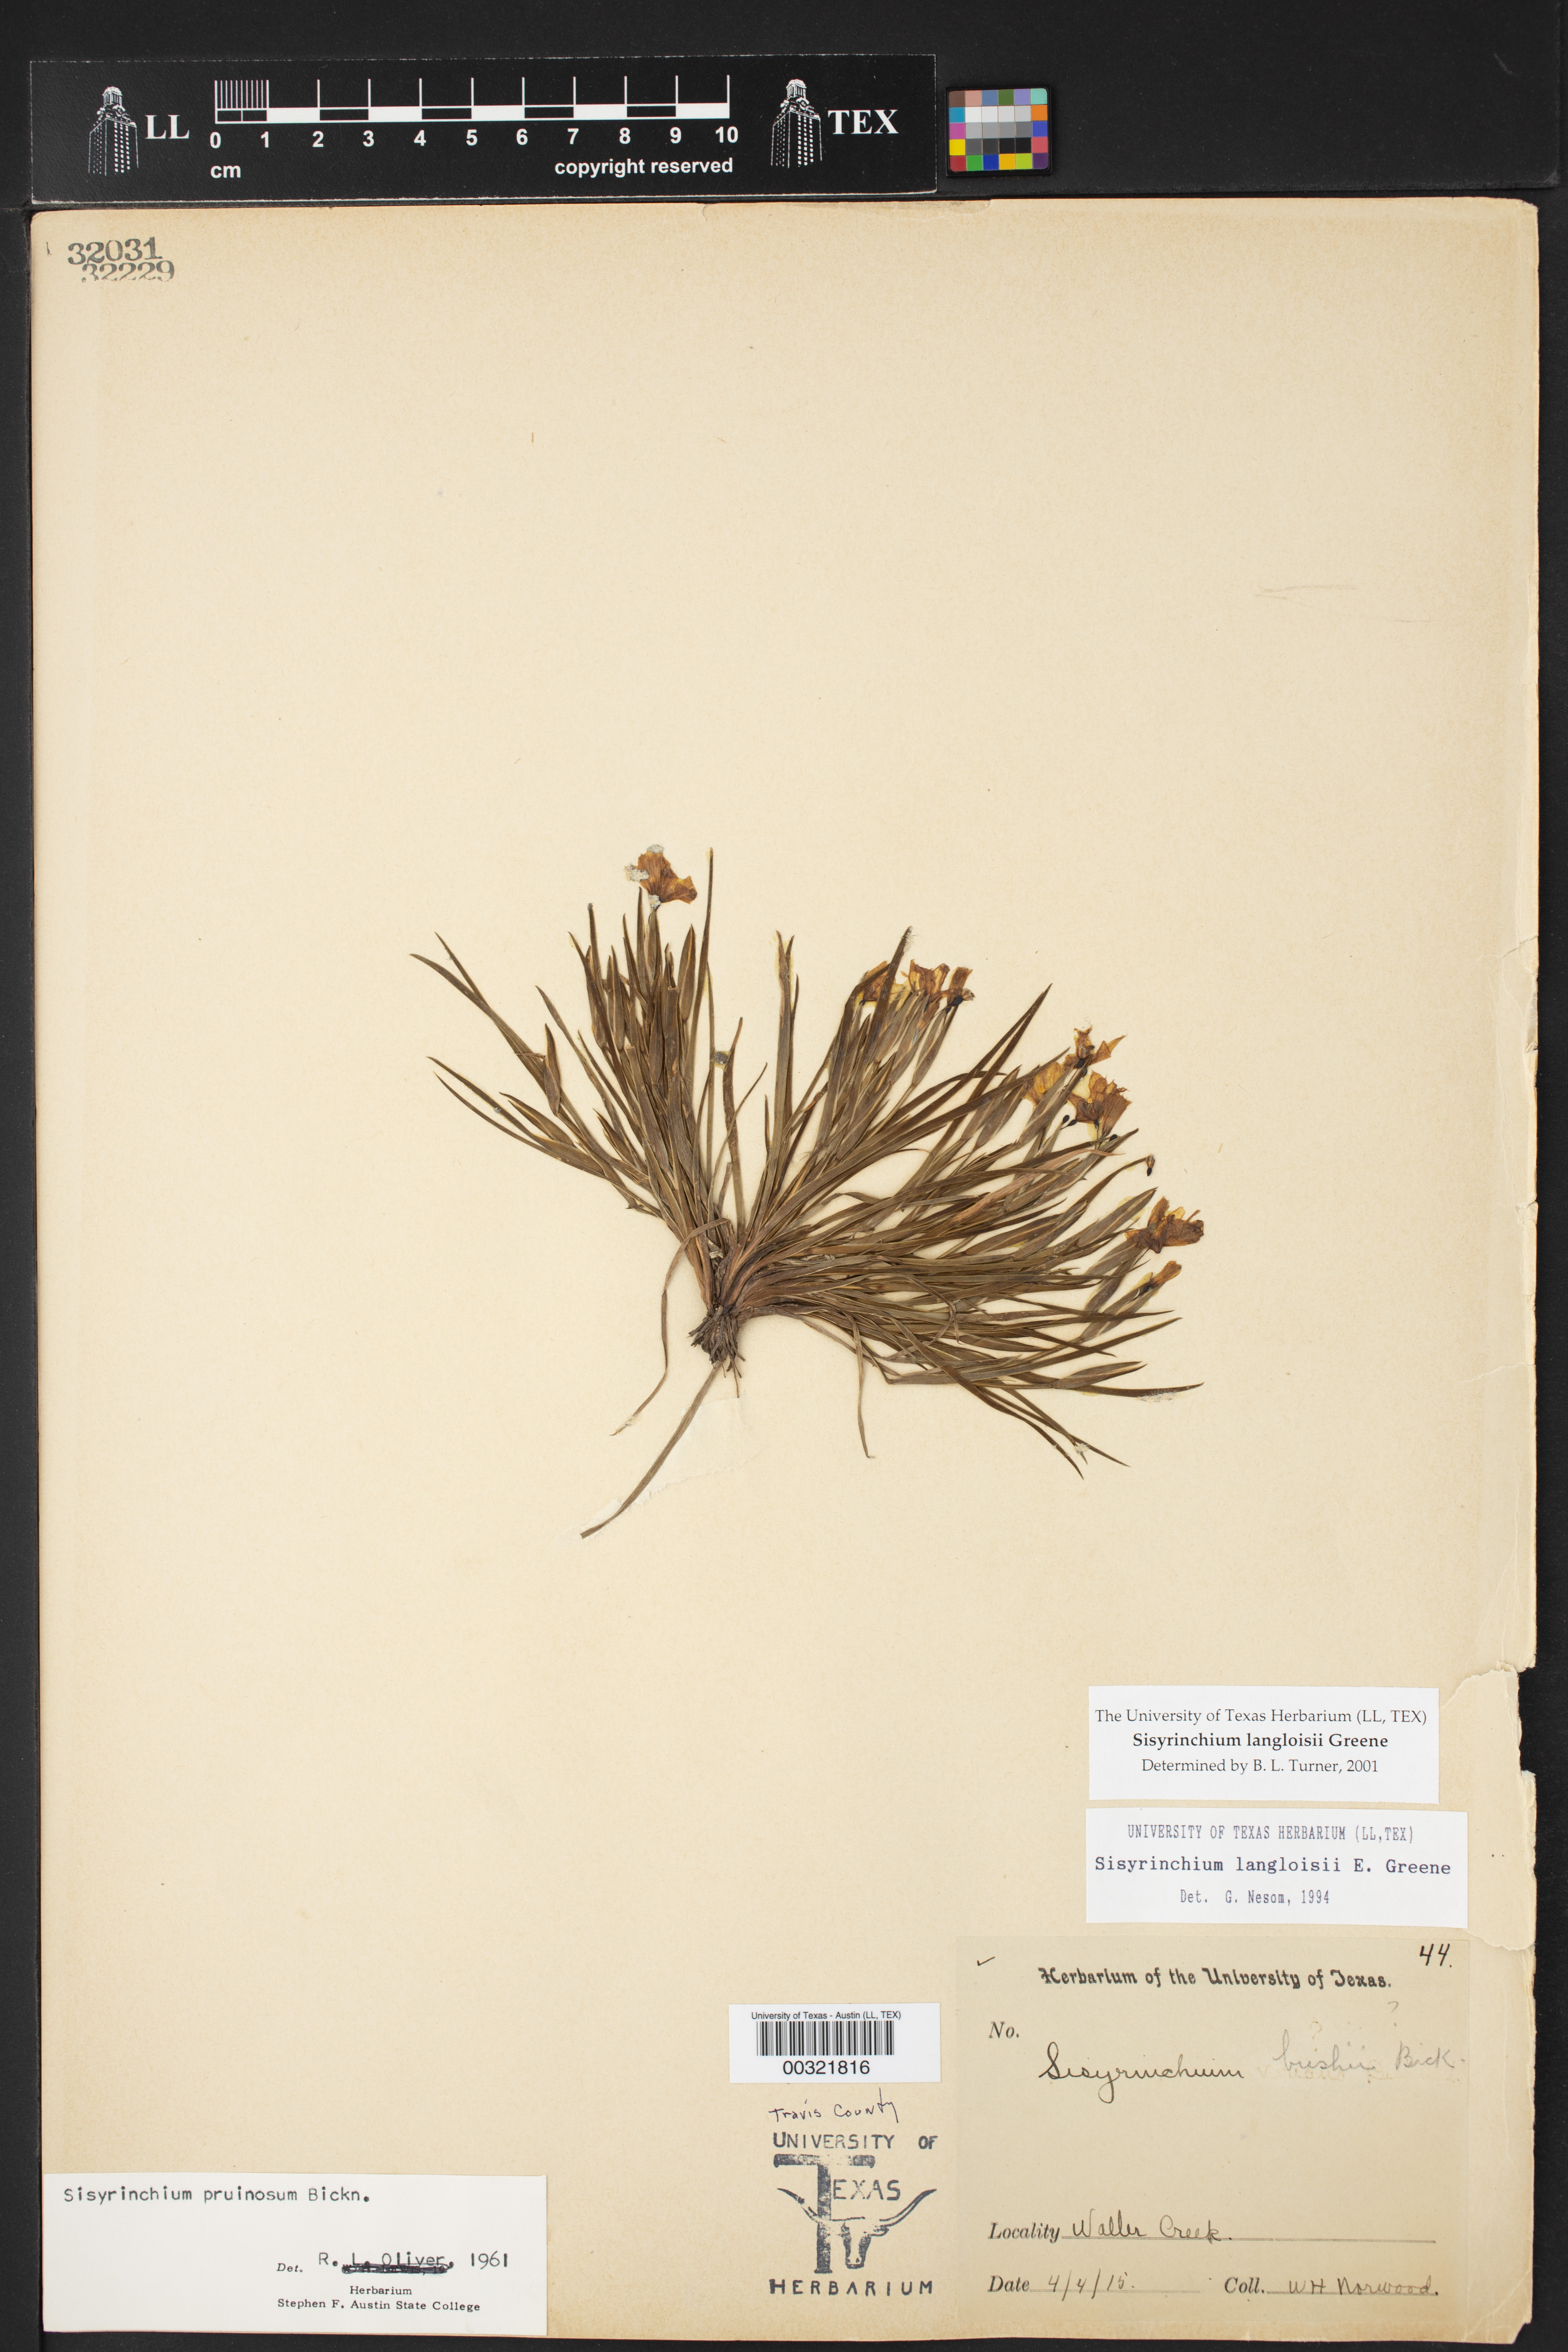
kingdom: Plantae
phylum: Tracheophyta
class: Liliopsida
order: Asparagales
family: Iridaceae
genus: Sisyrinchium
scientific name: Sisyrinchium langloisii
